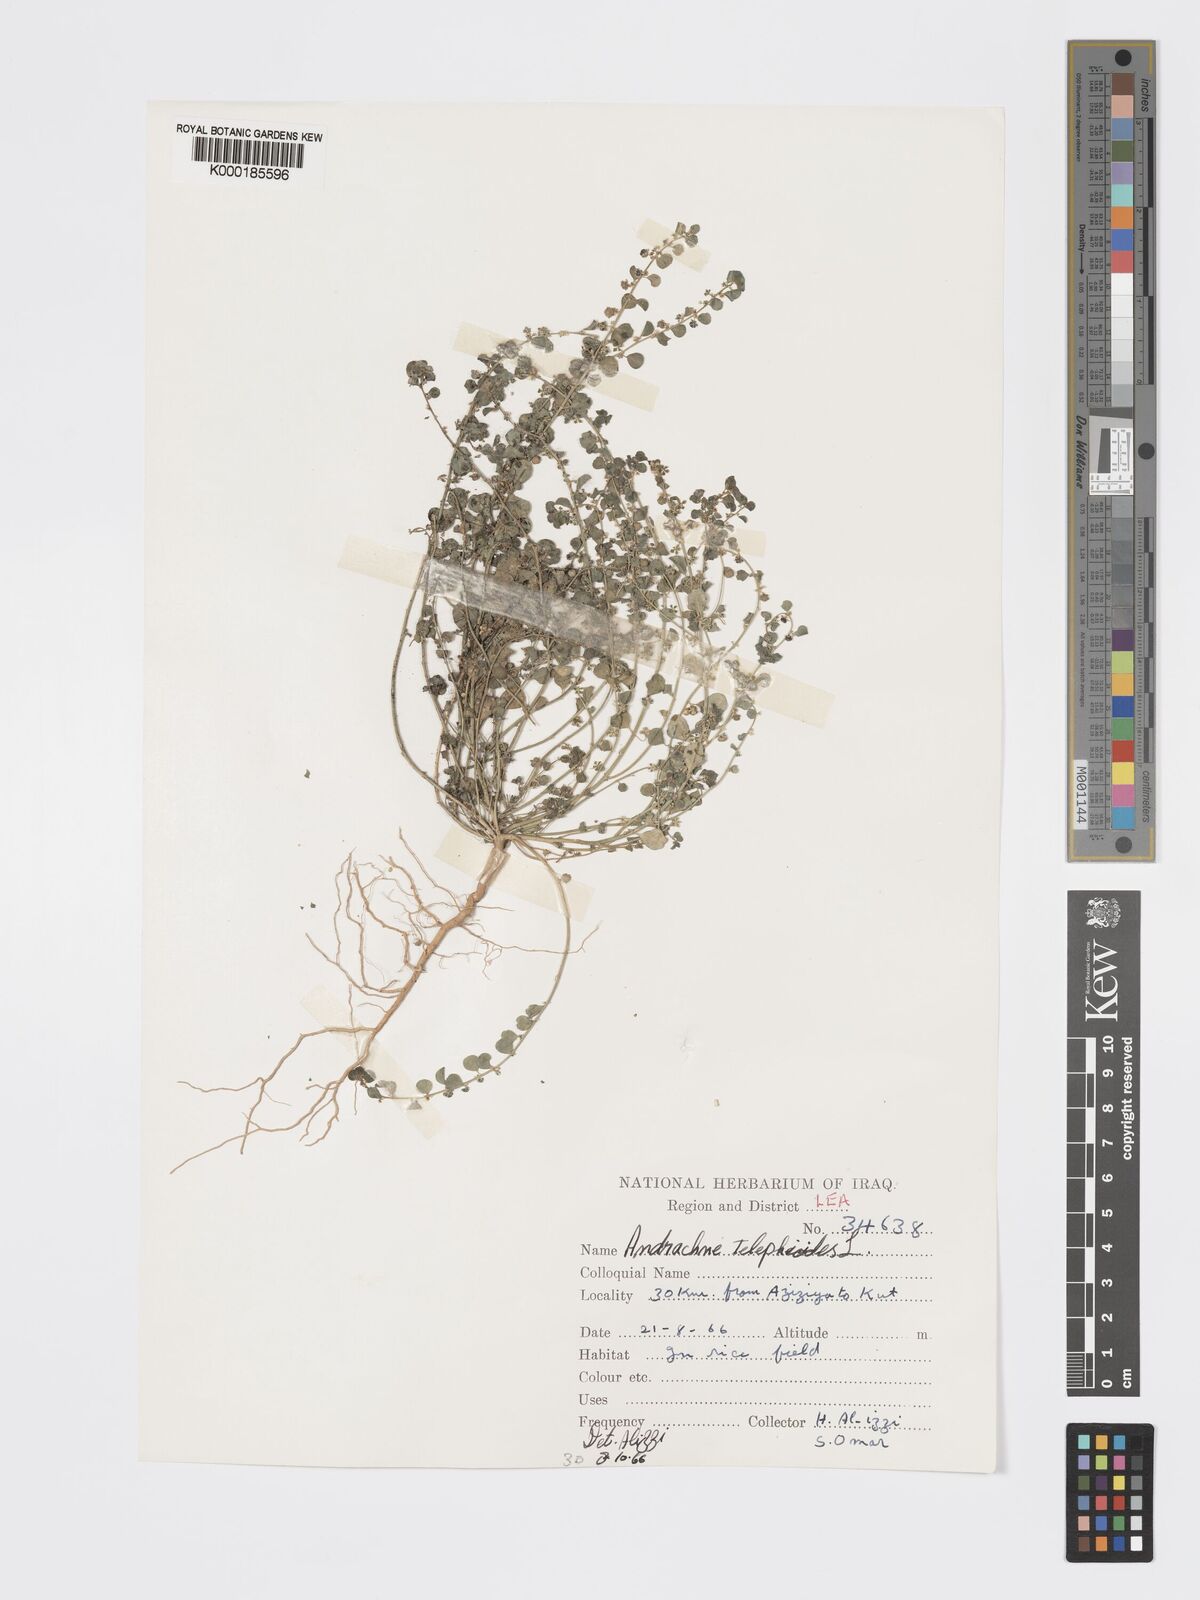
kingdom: Plantae
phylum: Tracheophyta
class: Magnoliopsida
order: Malpighiales
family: Phyllanthaceae
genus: Andrachne
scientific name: Andrachne telephioides
